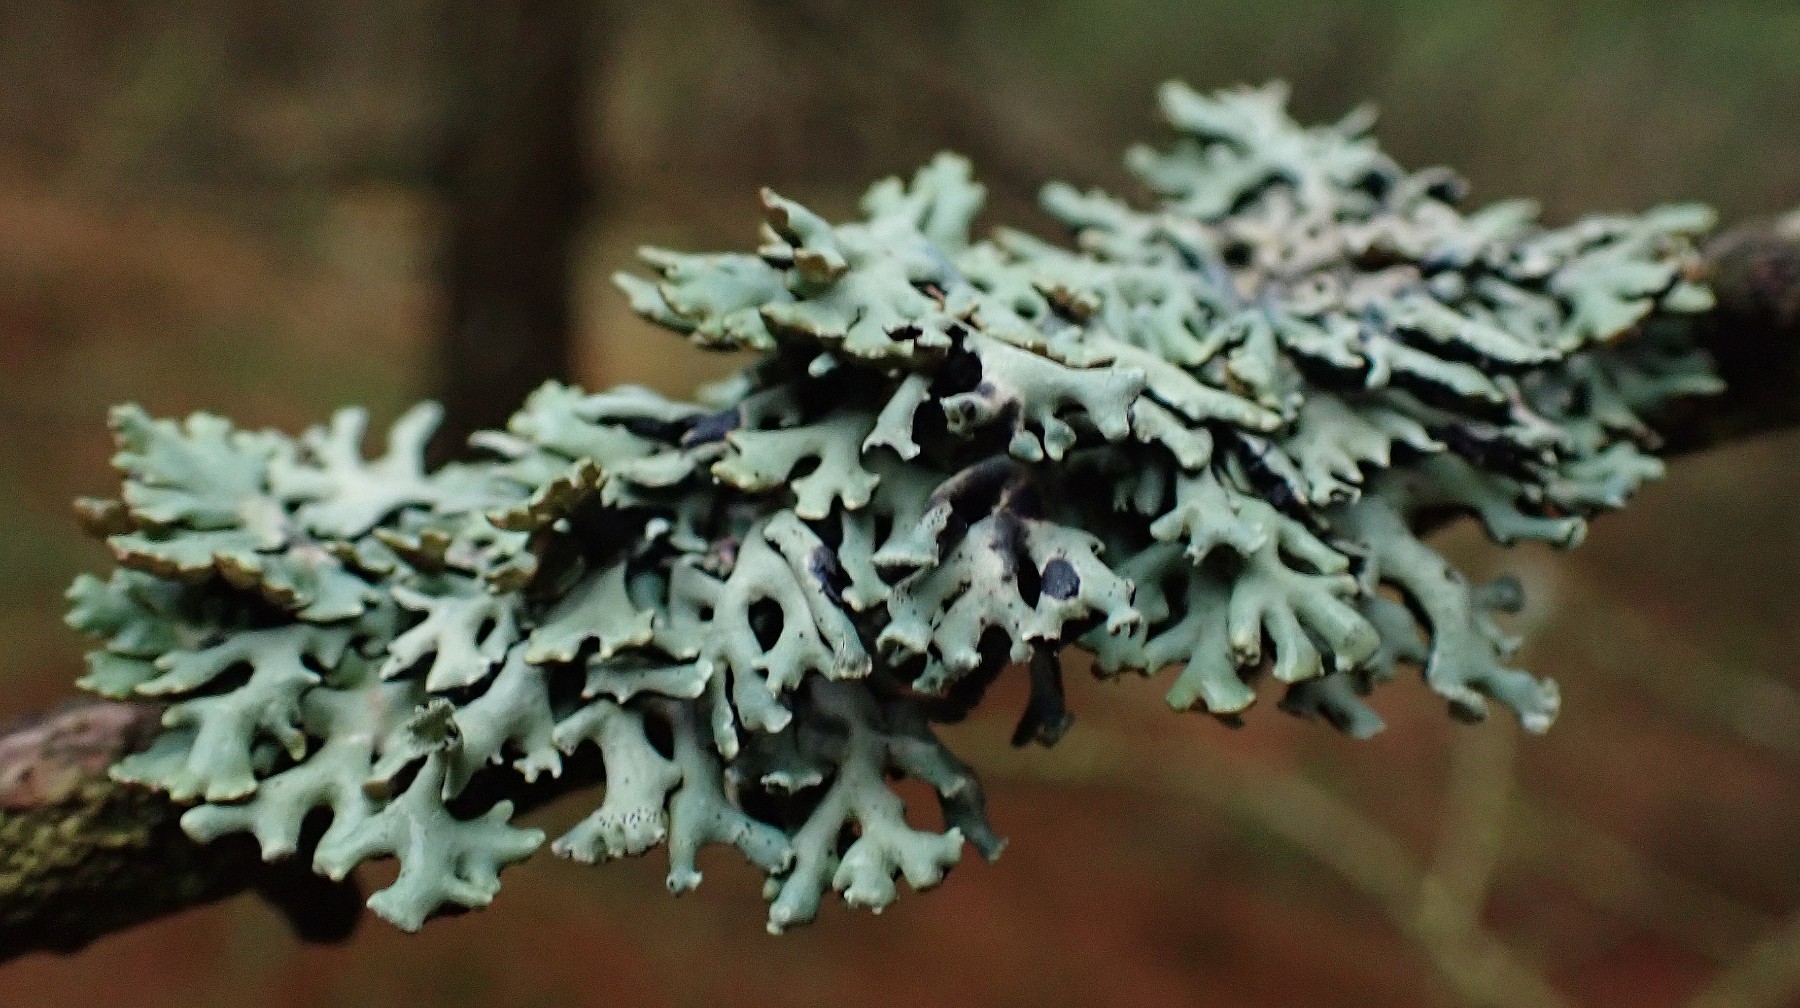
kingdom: Fungi
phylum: Ascomycota
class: Lecanoromycetes
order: Lecanorales
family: Parmeliaceae
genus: Hypogymnia
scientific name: Hypogymnia physodes
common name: almindelig kvistlav
